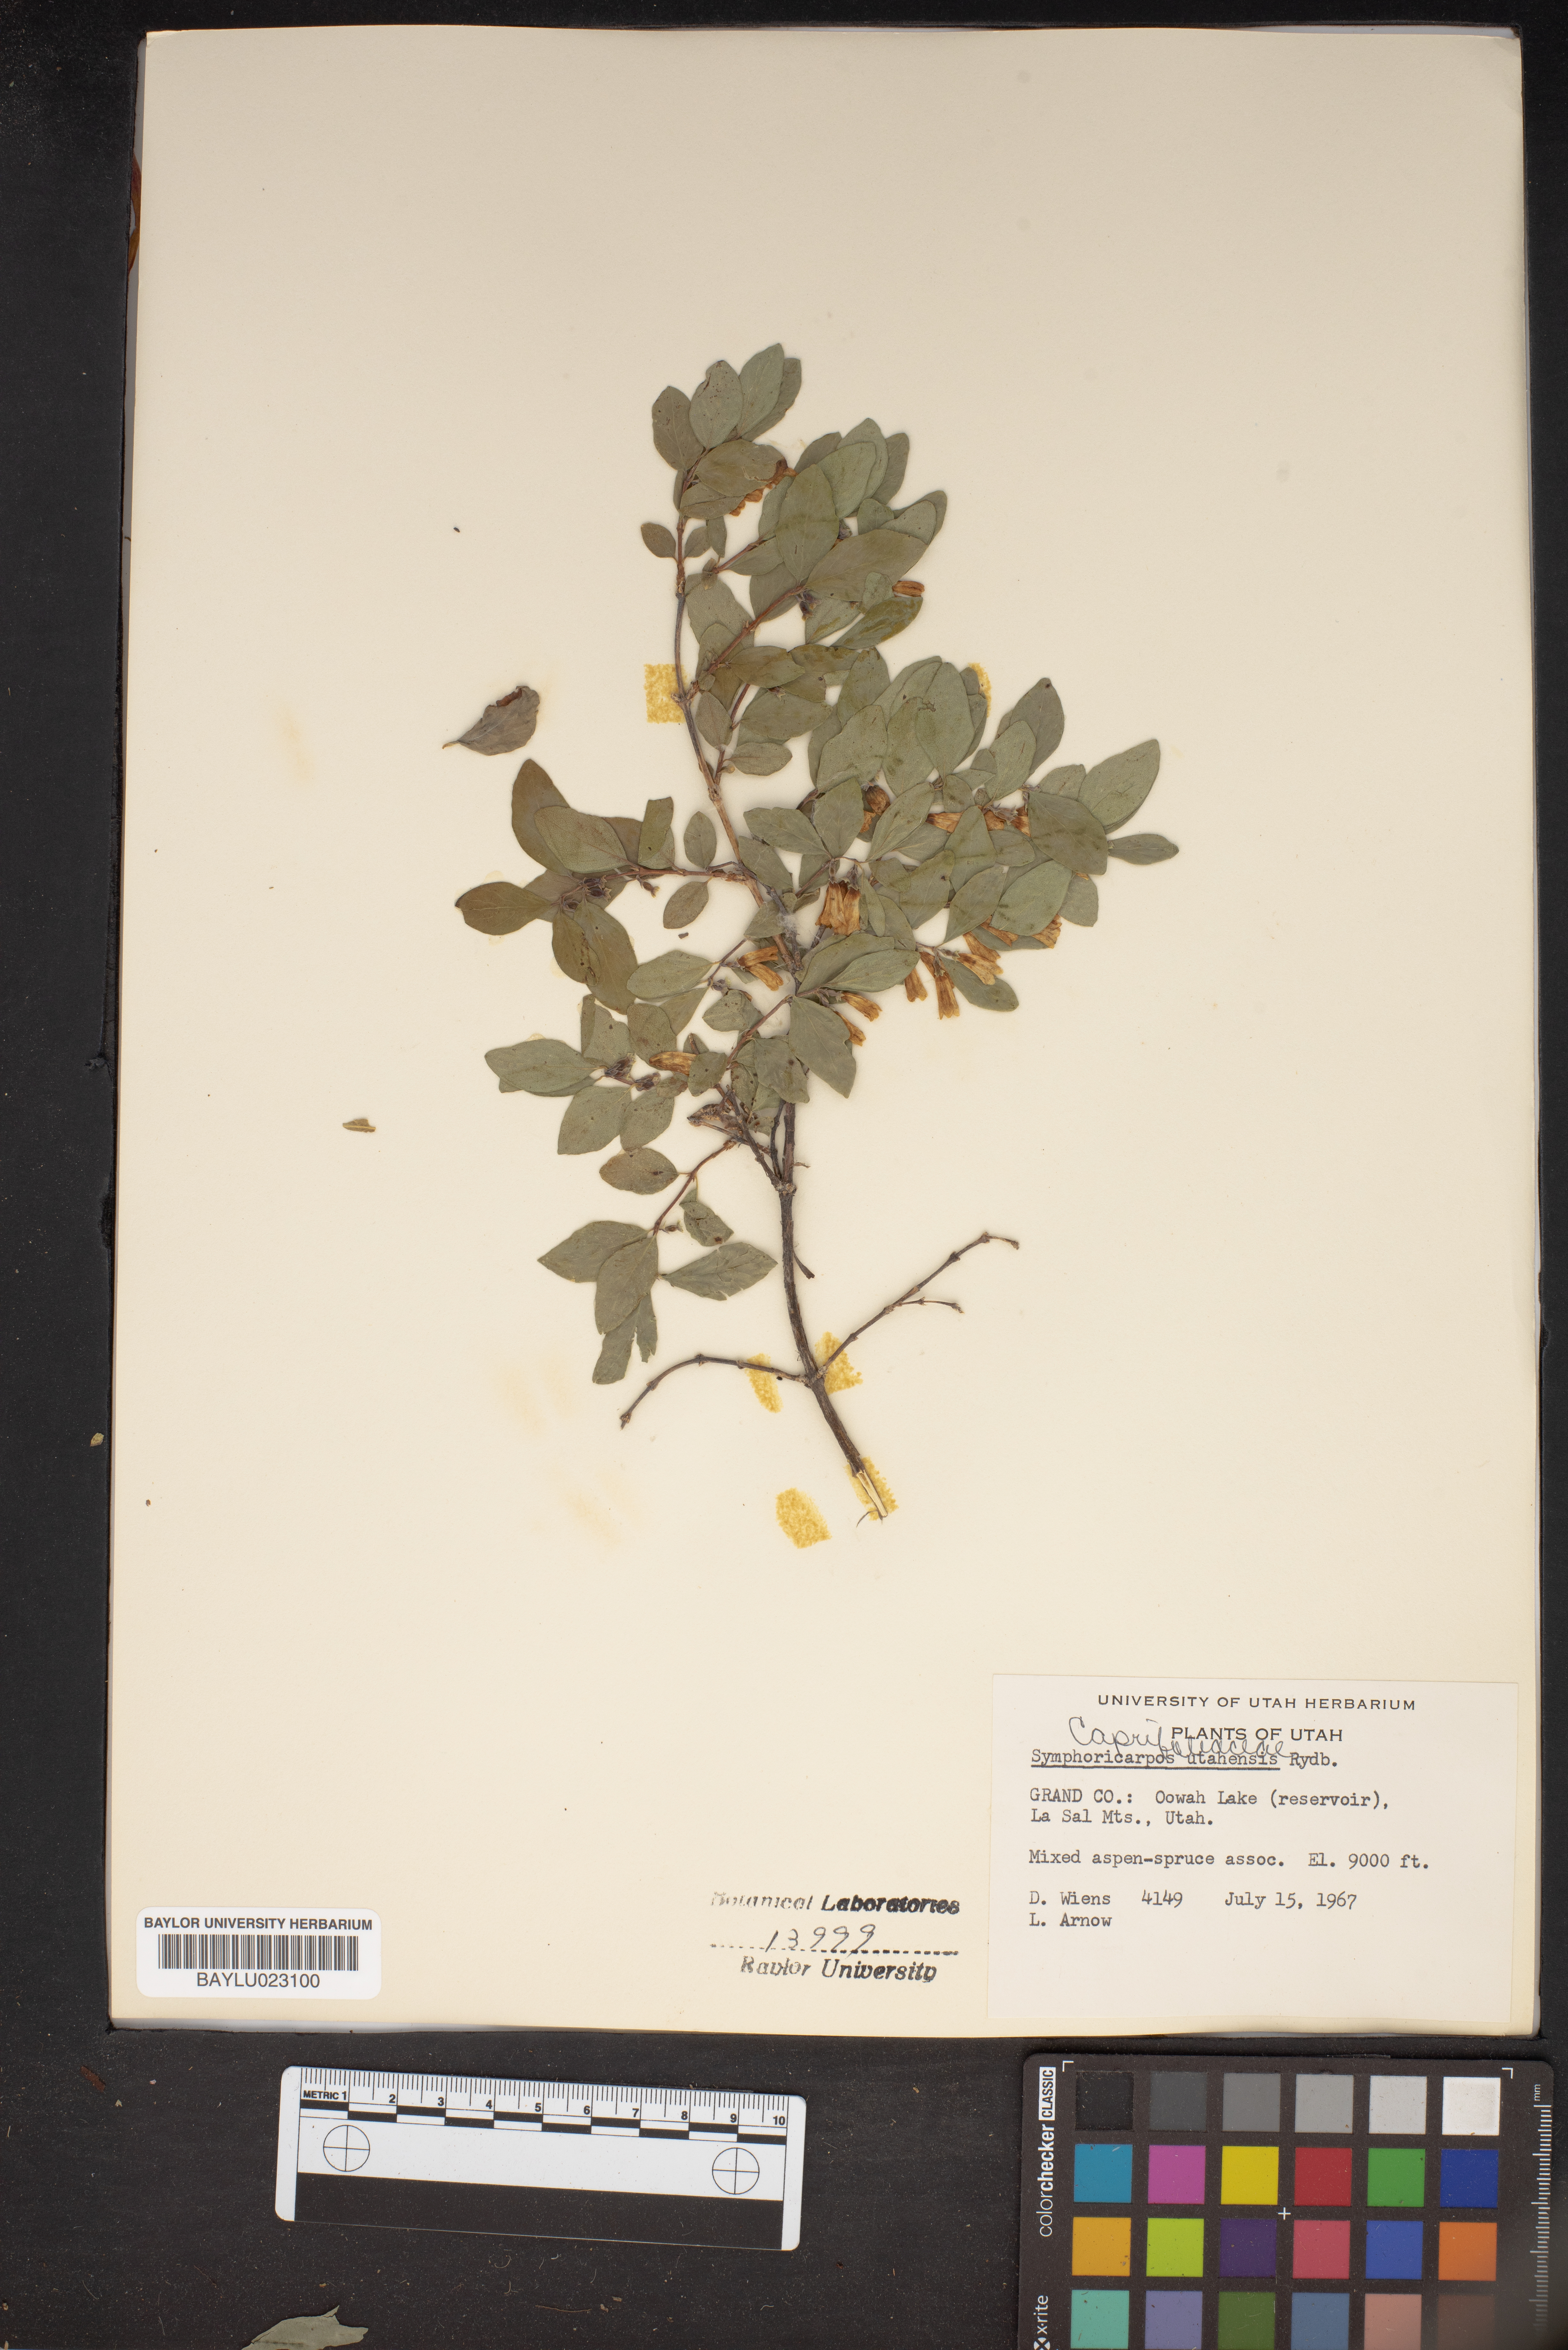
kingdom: Plantae
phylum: Tracheophyta
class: Magnoliopsida
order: Dipsacales
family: Caprifoliaceae
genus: Symphoricarpos
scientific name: Symphoricarpos oreophilus
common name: Mountain snowberry
